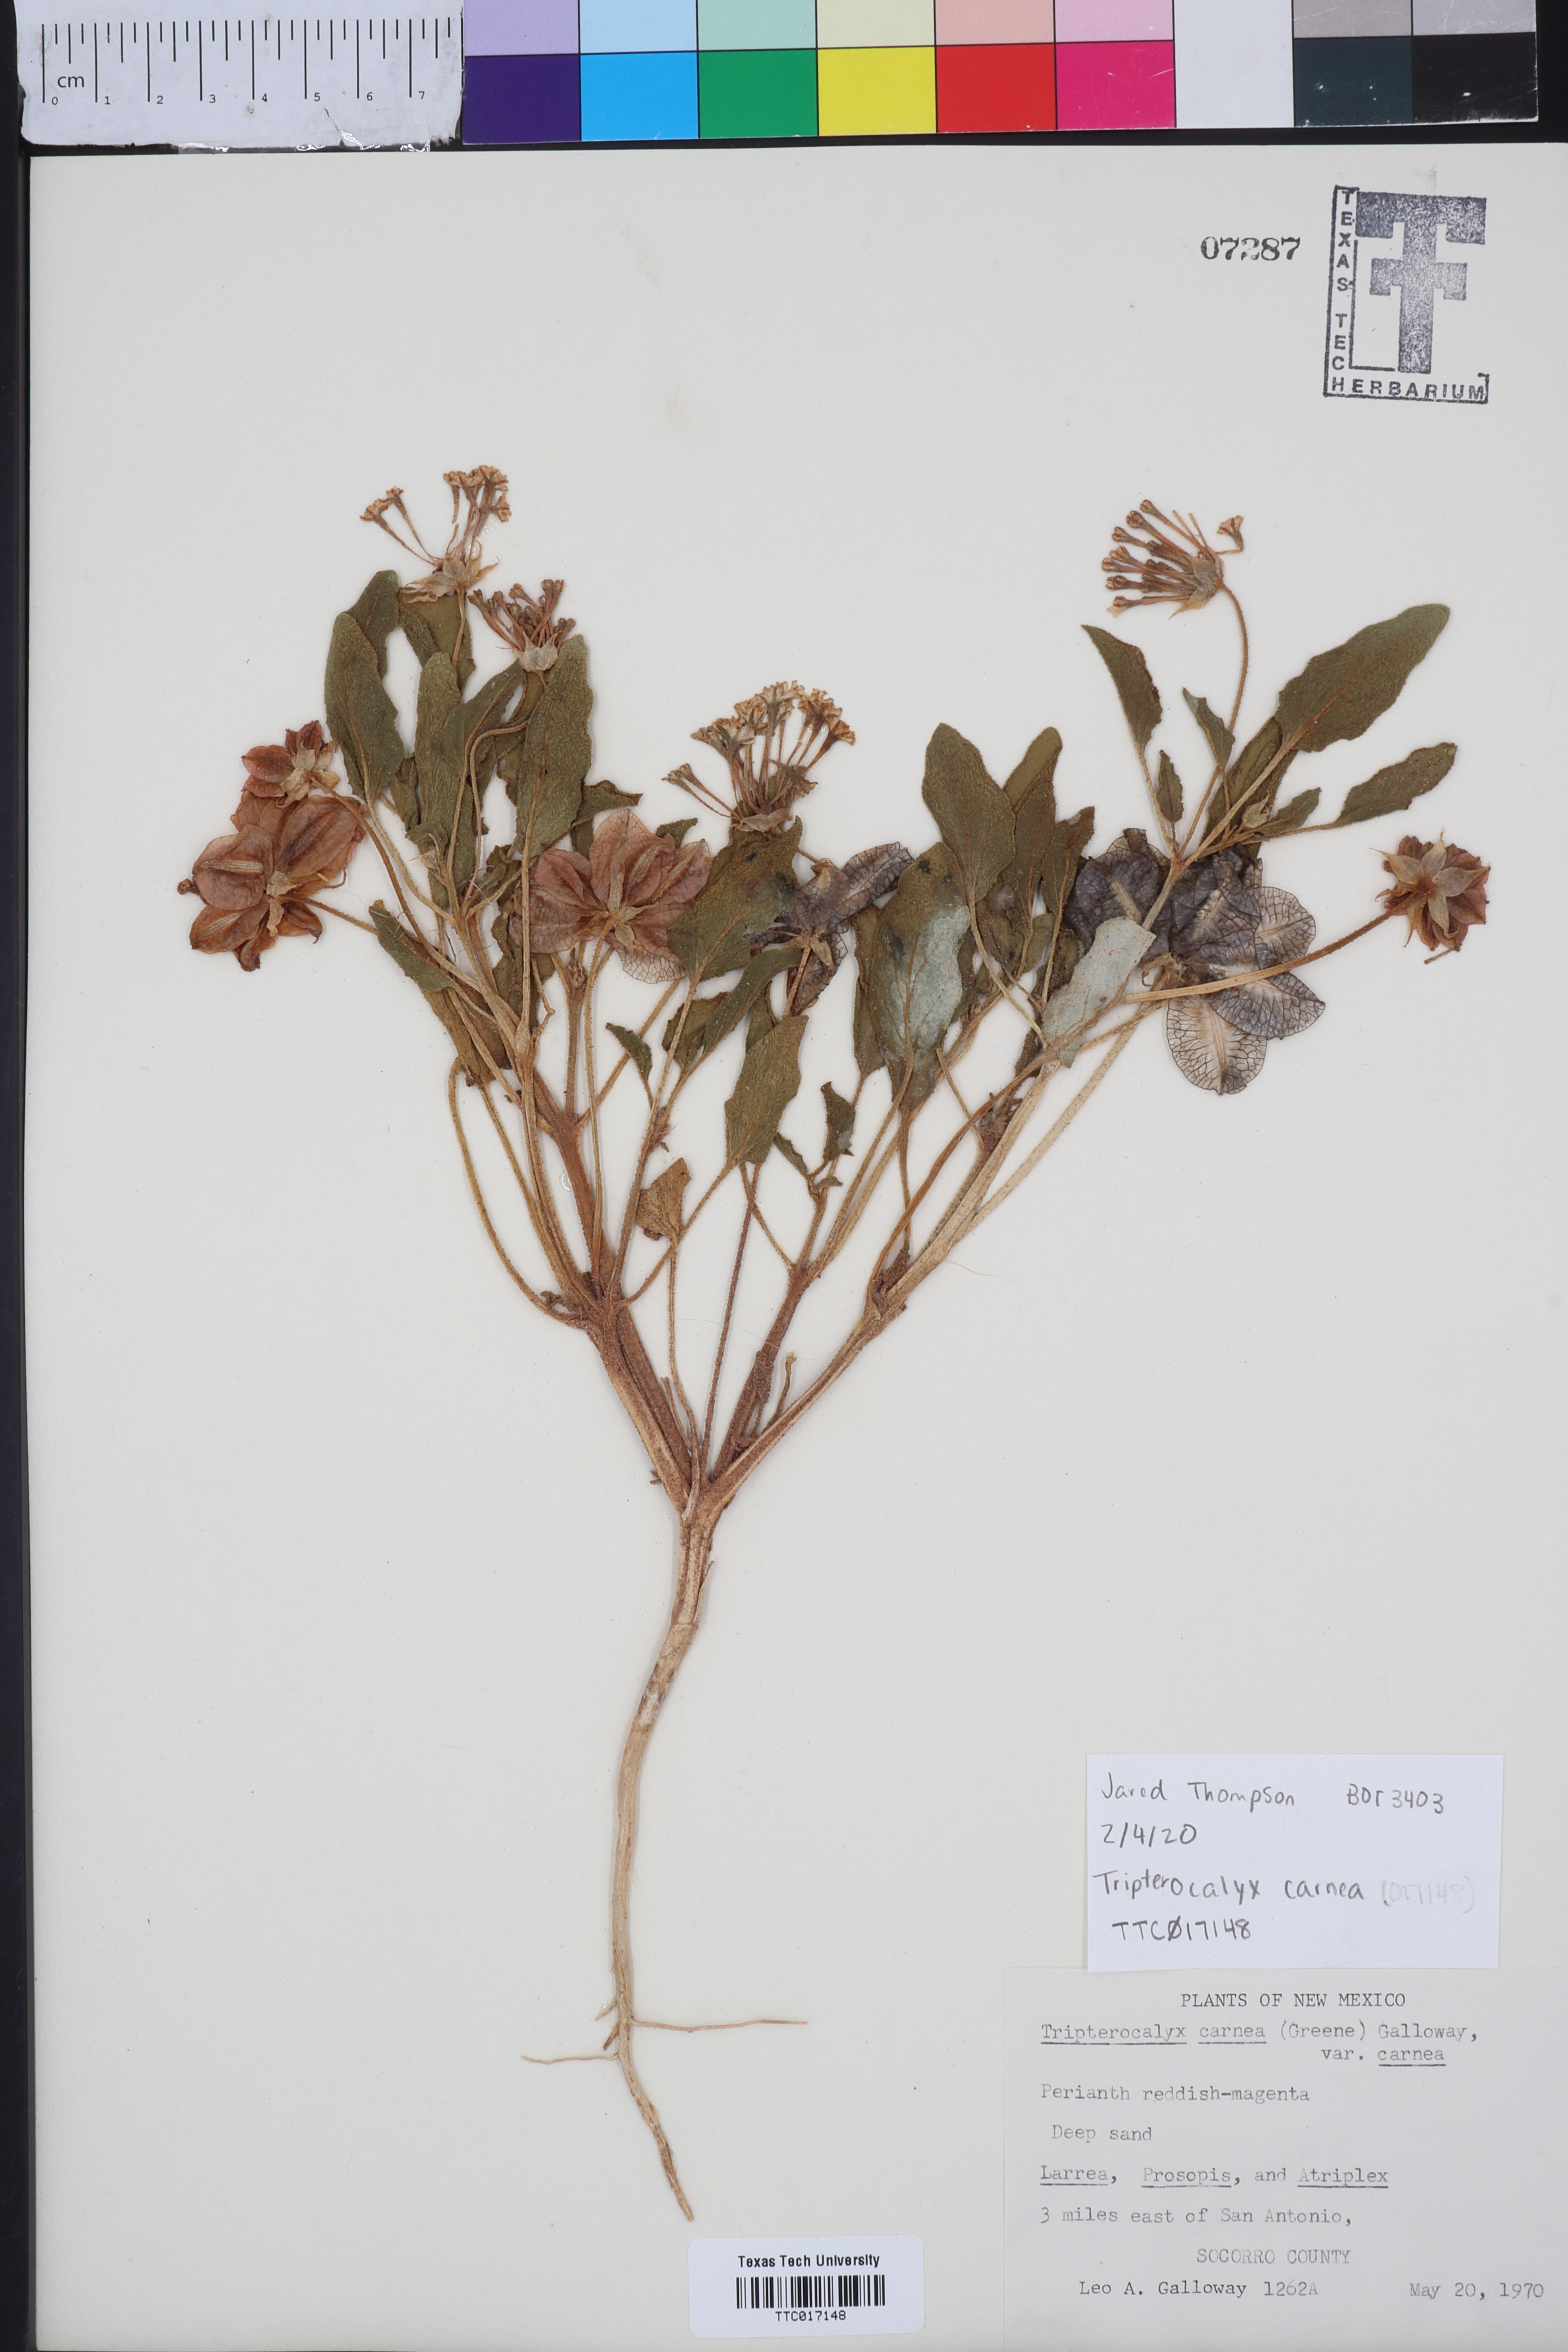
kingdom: Plantae
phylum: Tracheophyta
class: Magnoliopsida
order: Caryophyllales
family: Nyctaginaceae
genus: Tripterocalyx
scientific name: Tripterocalyx carneus
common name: Winged sandpuffs
